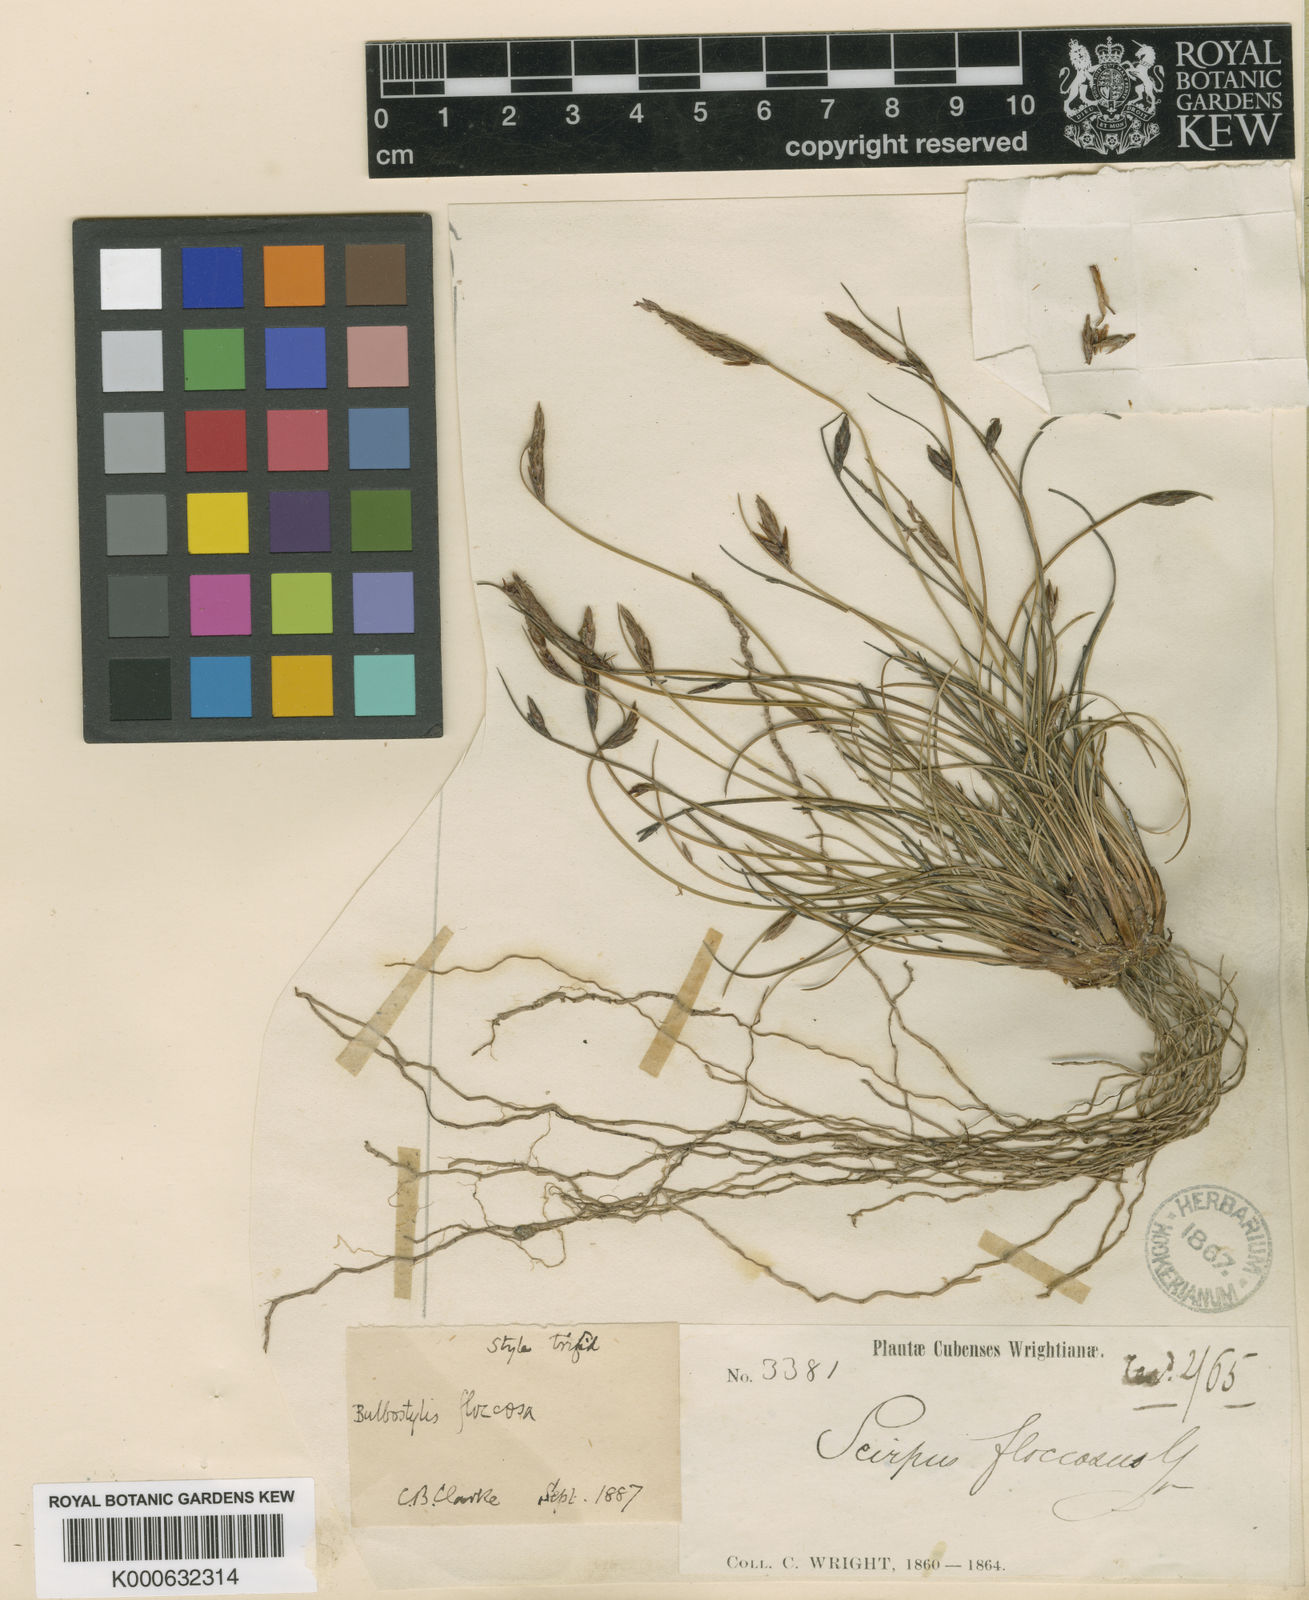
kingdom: Plantae
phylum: Tracheophyta
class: Liliopsida
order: Poales
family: Cyperaceae
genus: Bulbostylis
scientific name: Bulbostylis floccosa
